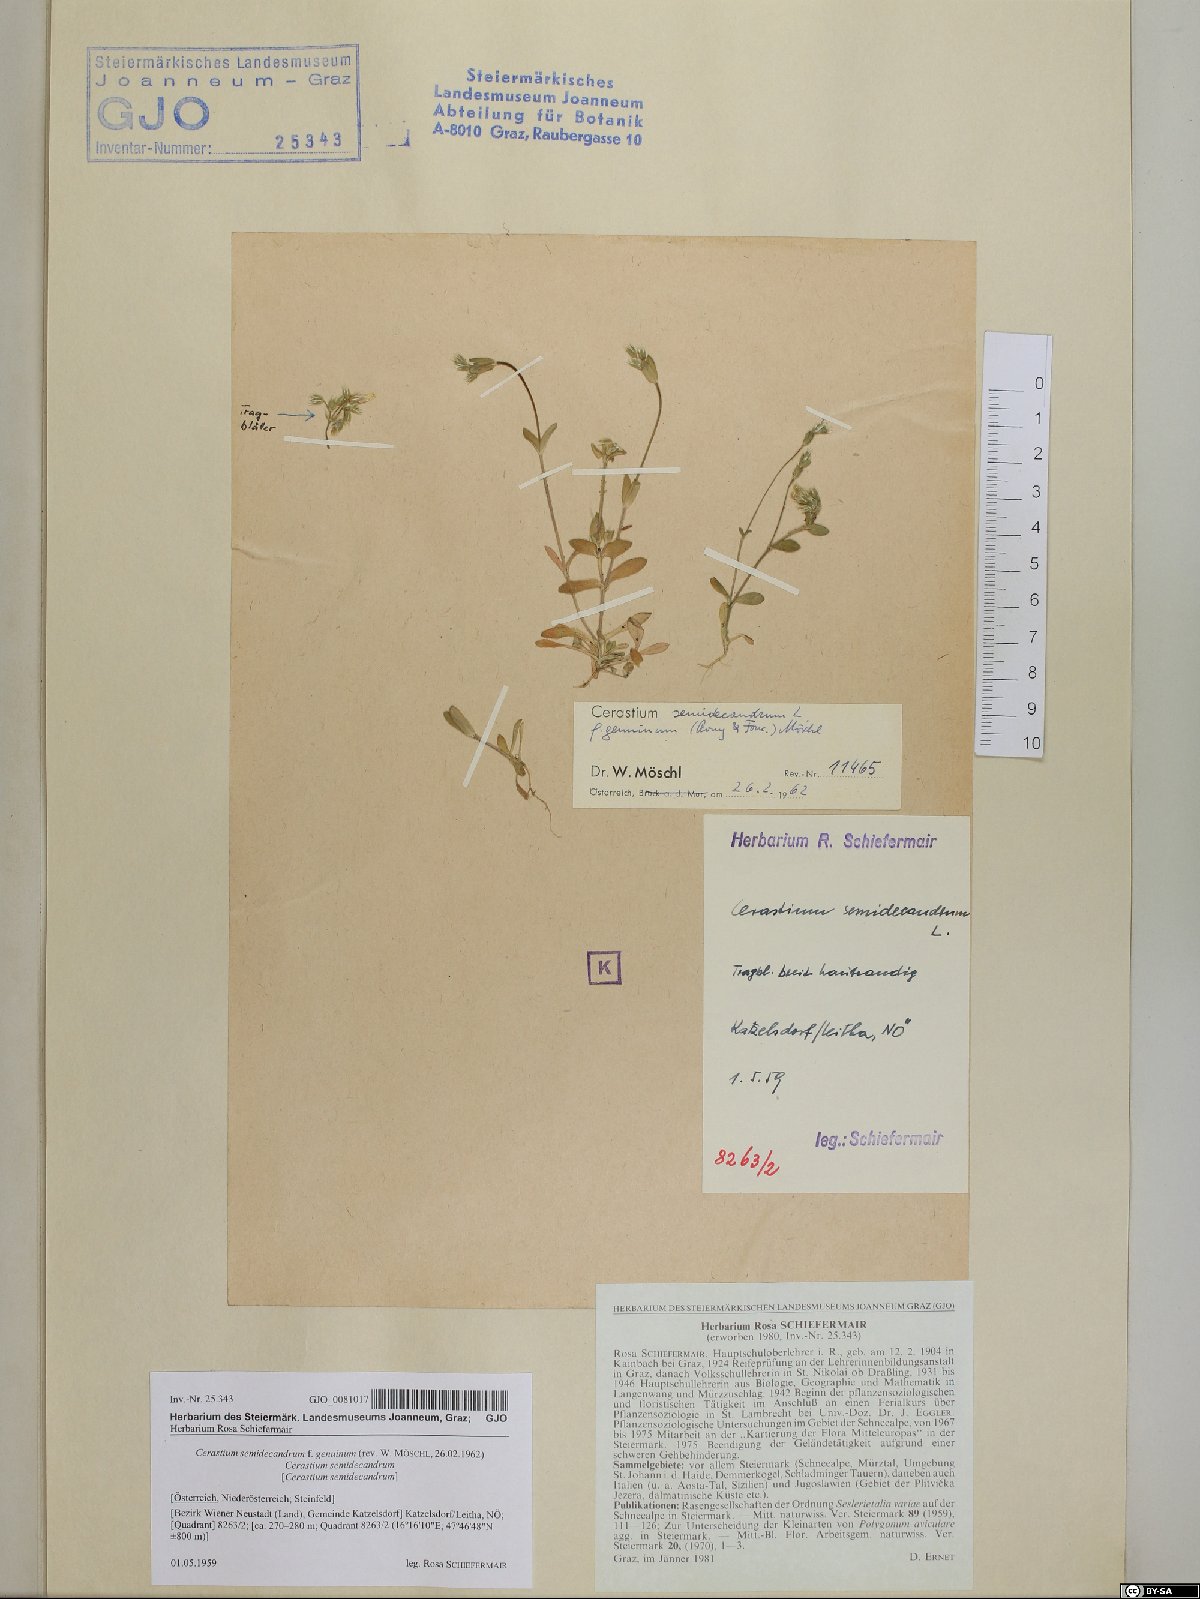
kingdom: Plantae
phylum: Tracheophyta
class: Magnoliopsida
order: Caryophyllales
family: Caryophyllaceae
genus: Cerastium
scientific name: Cerastium semidecandrum
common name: Little mouse-ear
